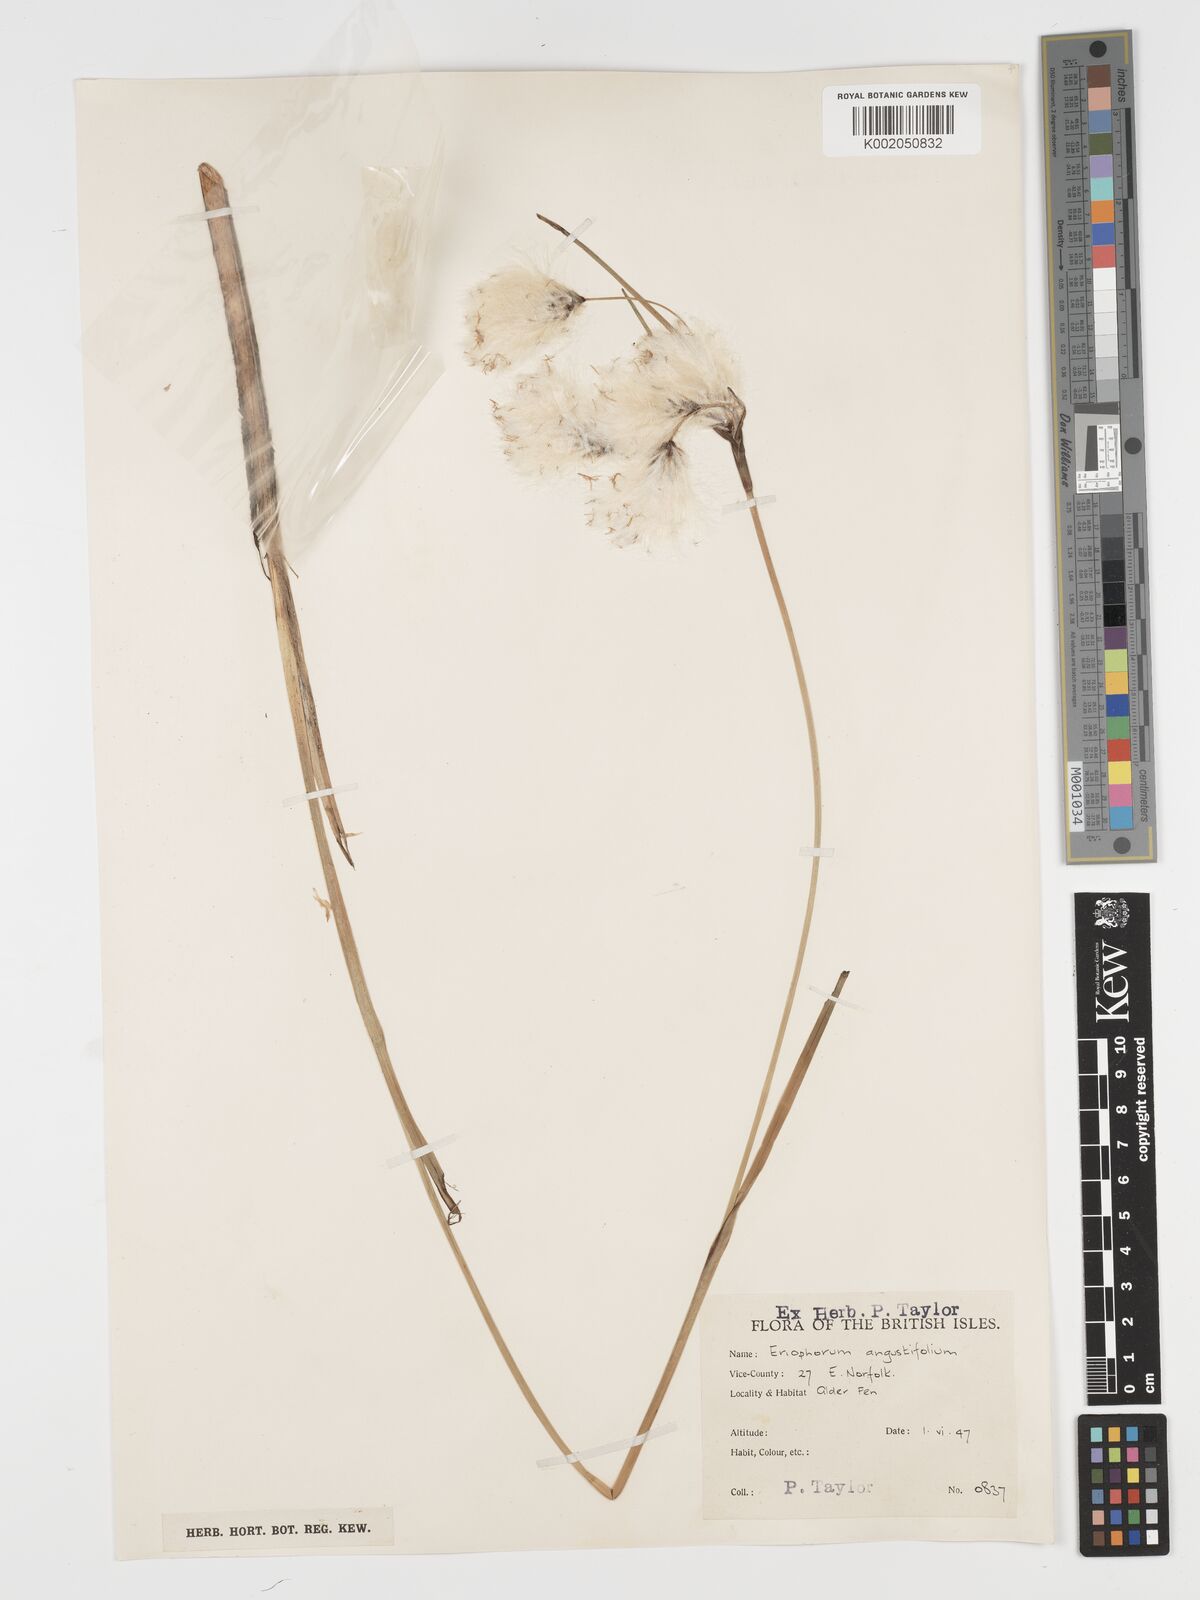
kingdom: Plantae
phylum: Tracheophyta
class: Liliopsida
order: Poales
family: Cyperaceae
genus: Eriophorum
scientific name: Eriophorum angustifolium
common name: Common cottongrass
